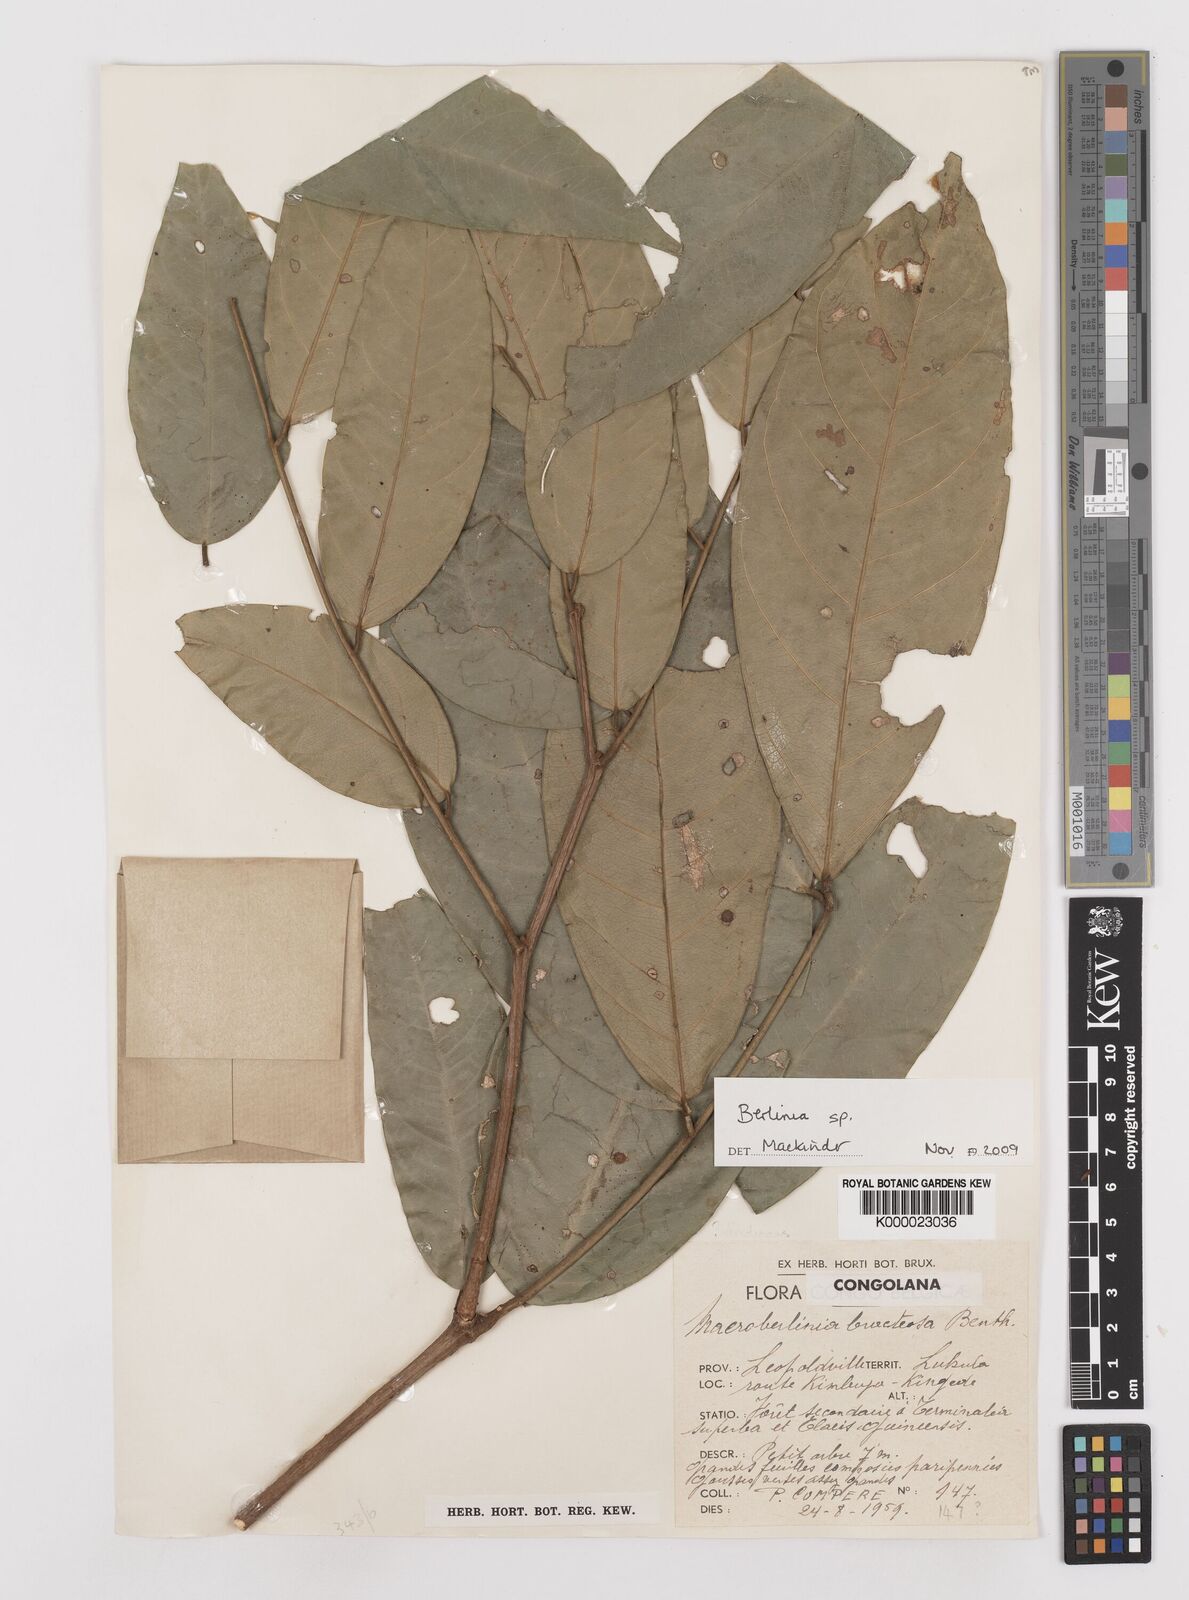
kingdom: Plantae
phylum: Tracheophyta
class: Magnoliopsida
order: Fabales
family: Fabaceae
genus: Berlinia
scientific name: Berlinia viridicans
